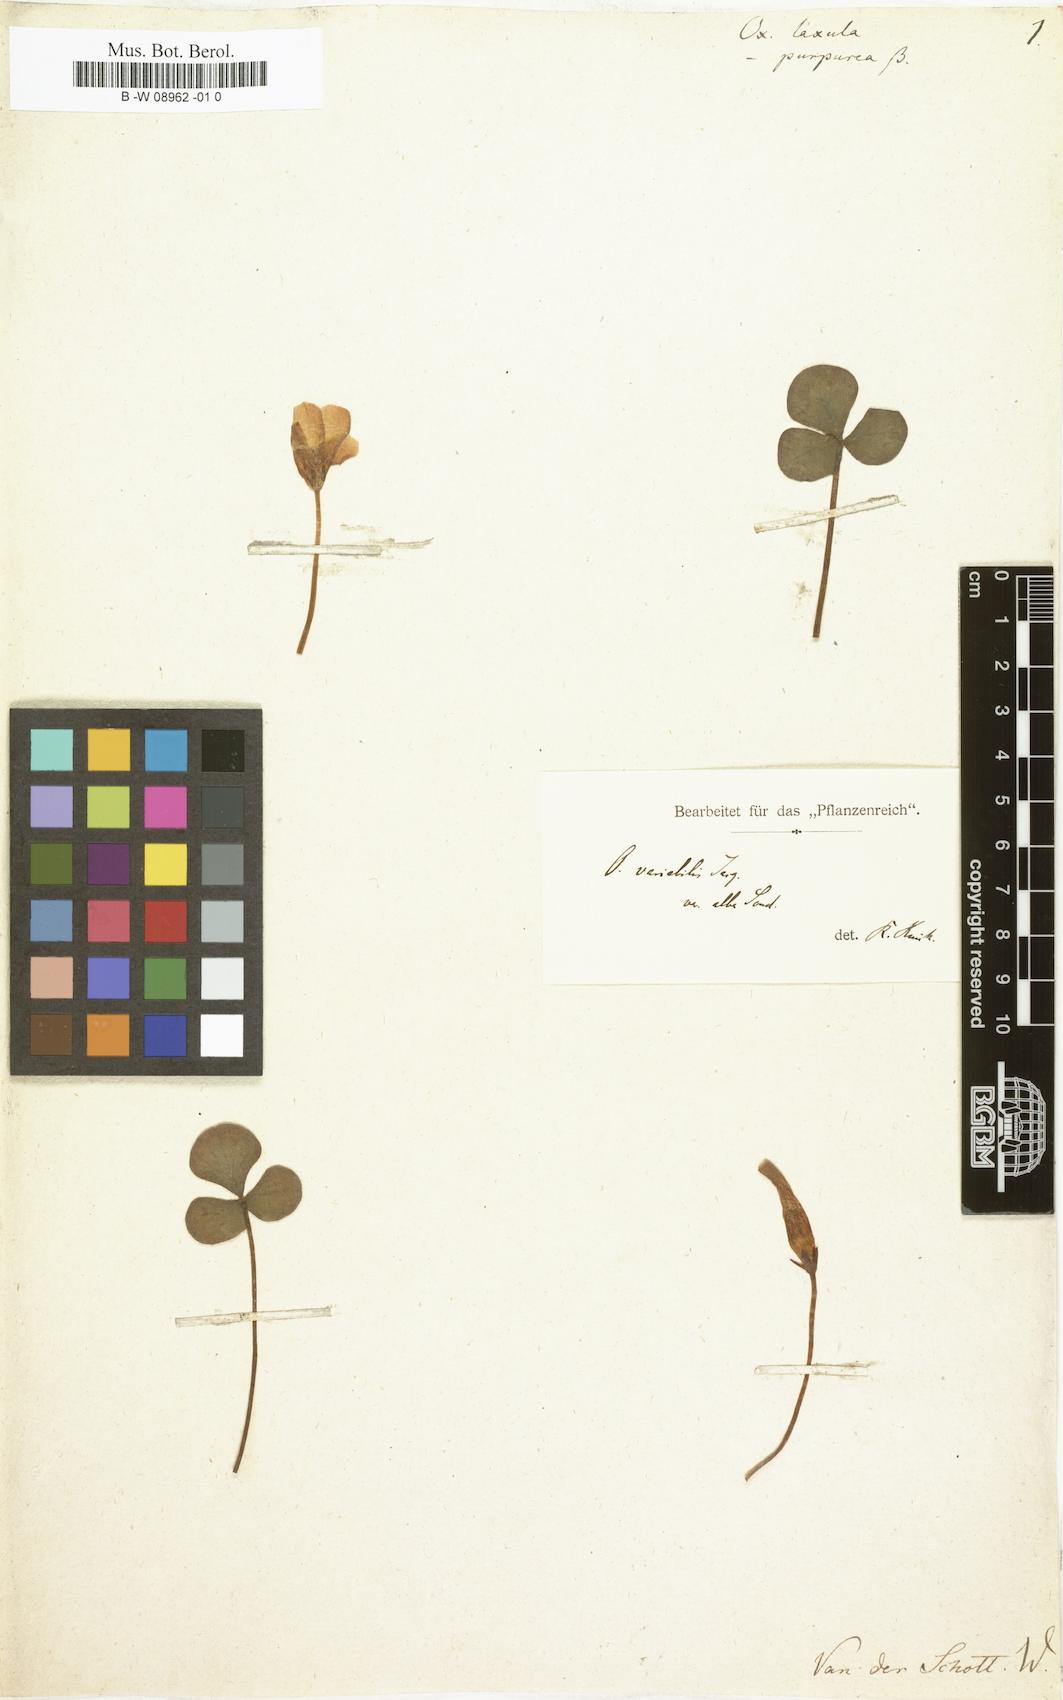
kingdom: Plantae
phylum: Tracheophyta
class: Magnoliopsida
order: Oxalidales
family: Oxalidaceae
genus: Oxalis
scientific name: Oxalis
